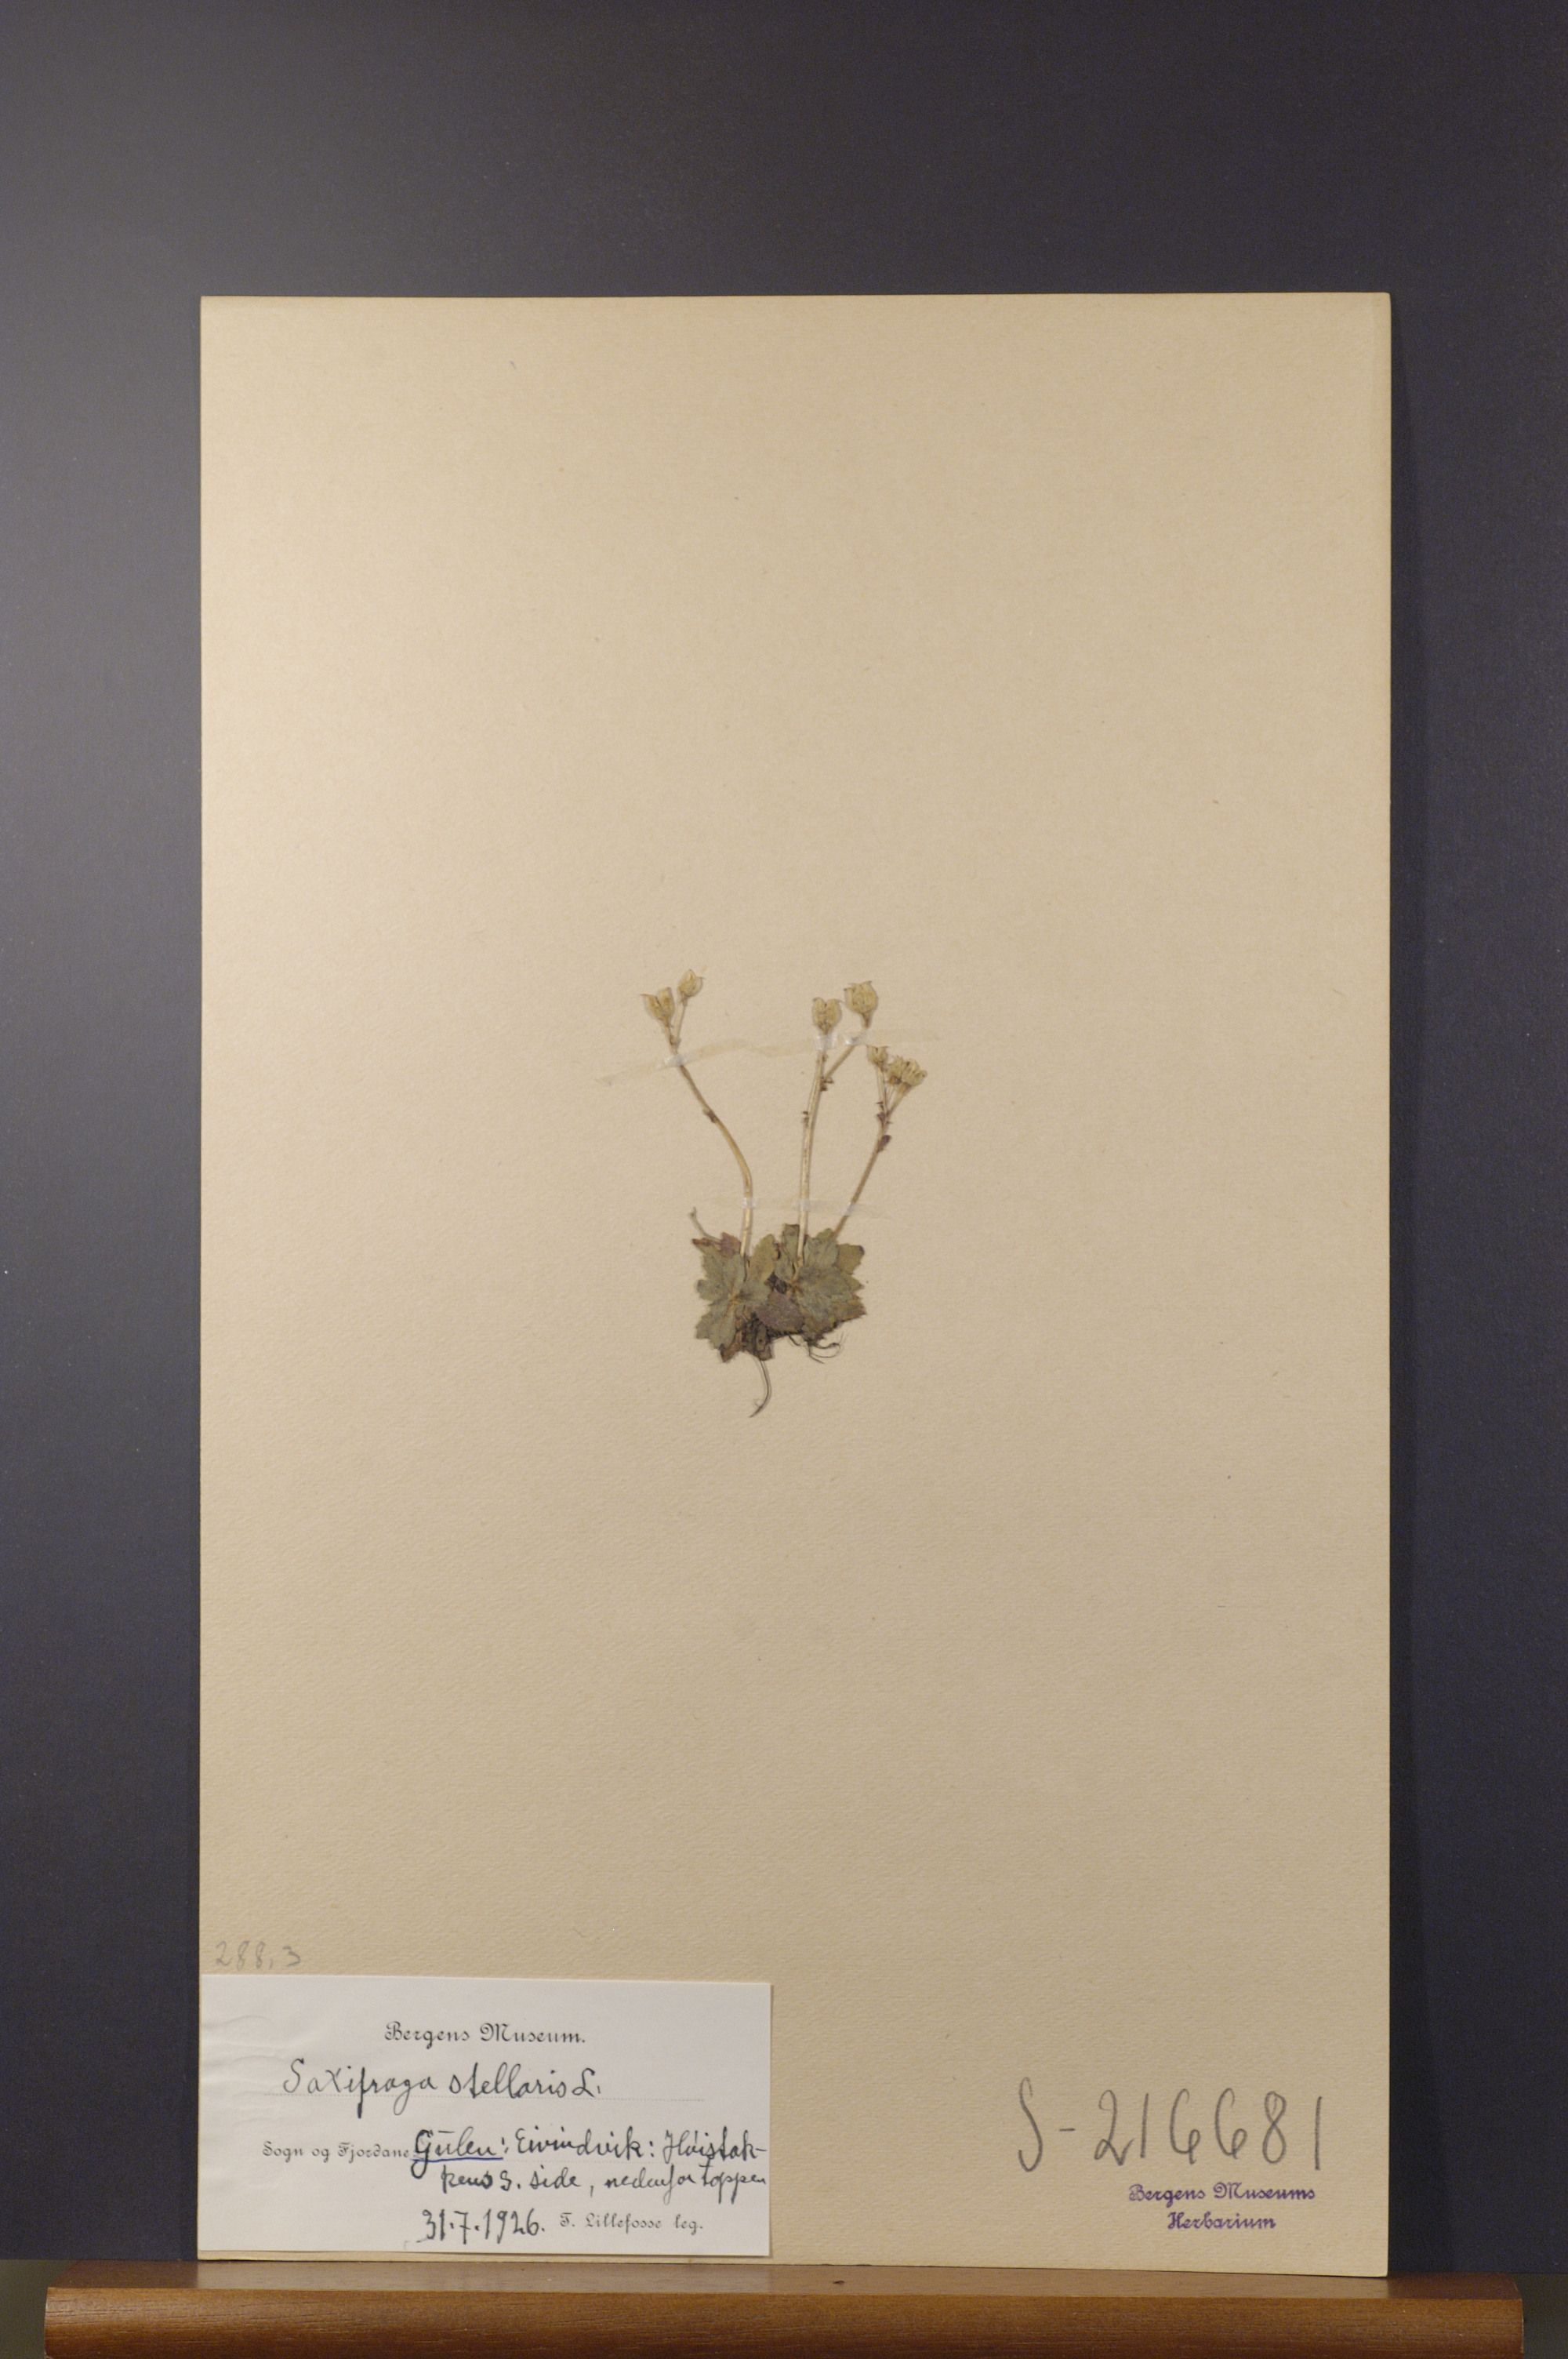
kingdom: Plantae
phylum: Tracheophyta
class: Magnoliopsida
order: Saxifragales
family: Saxifragaceae
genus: Micranthes
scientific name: Micranthes stellaris
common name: Starry saxifrage
